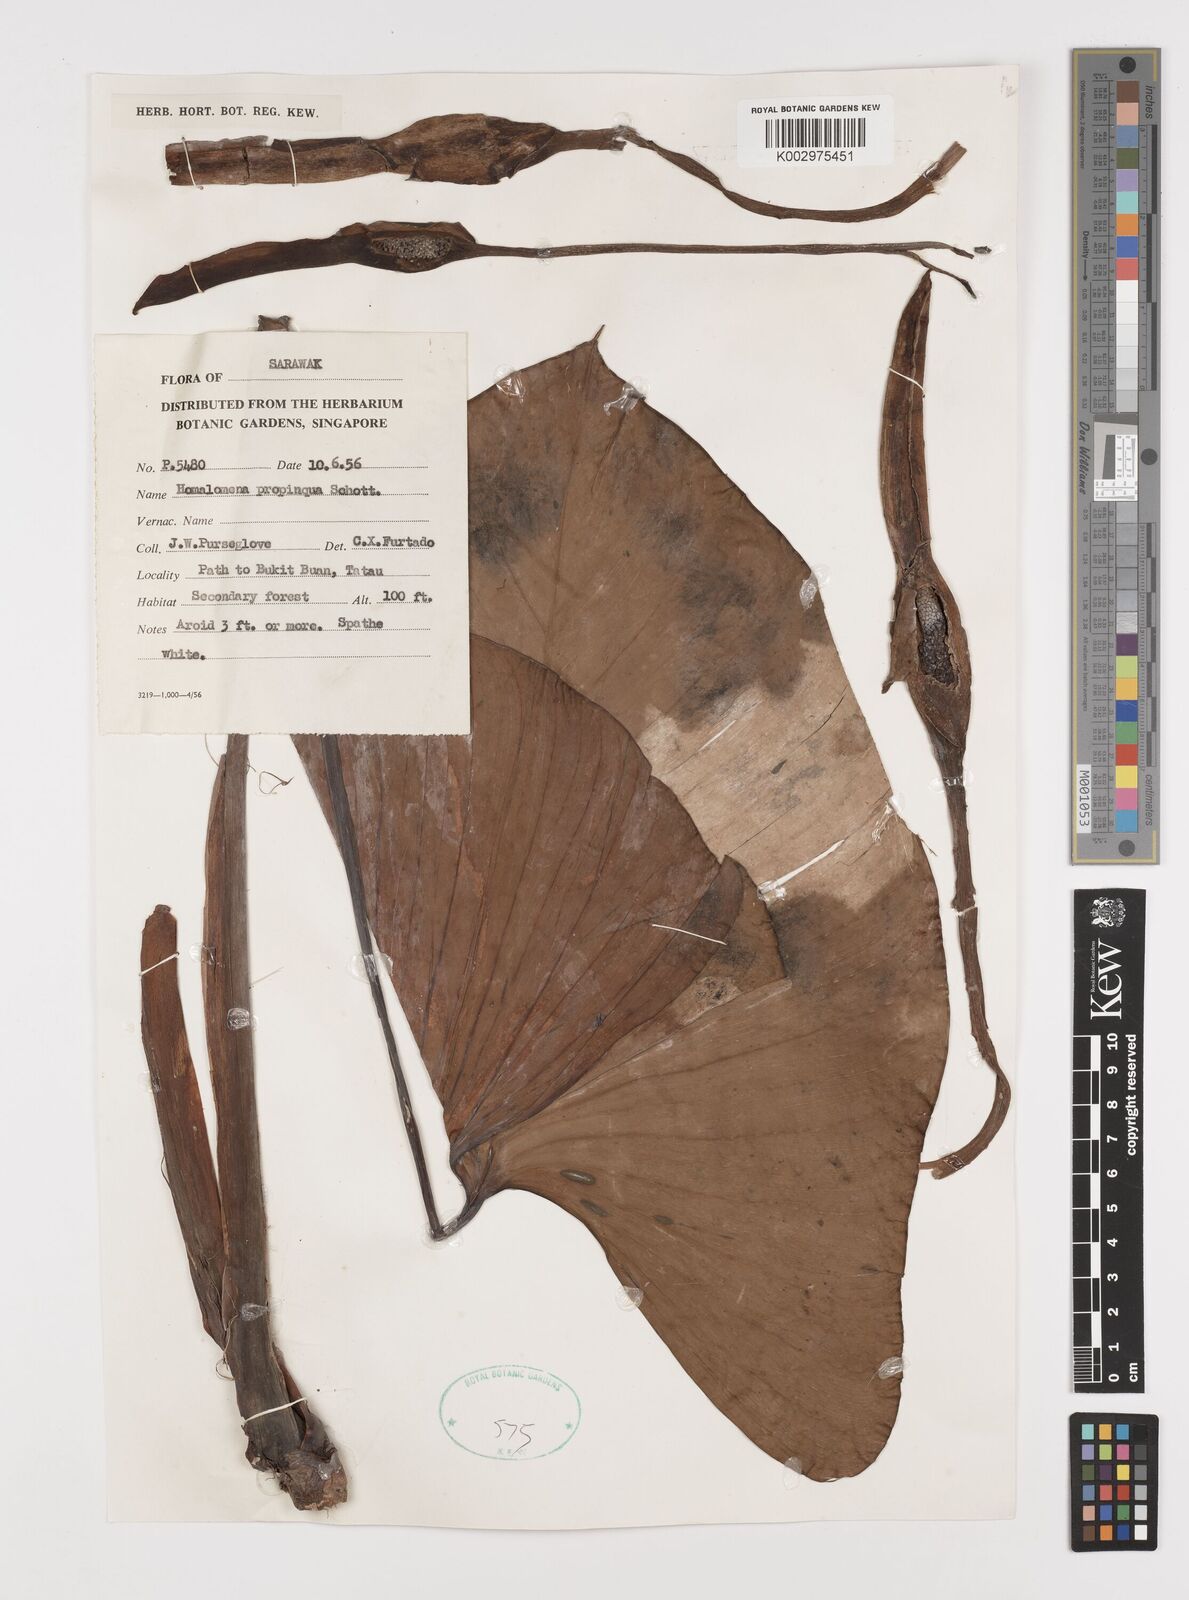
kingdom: Plantae
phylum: Tracheophyta
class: Liliopsida
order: Alismatales
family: Araceae
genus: Homalomena
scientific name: Homalomena humilis
